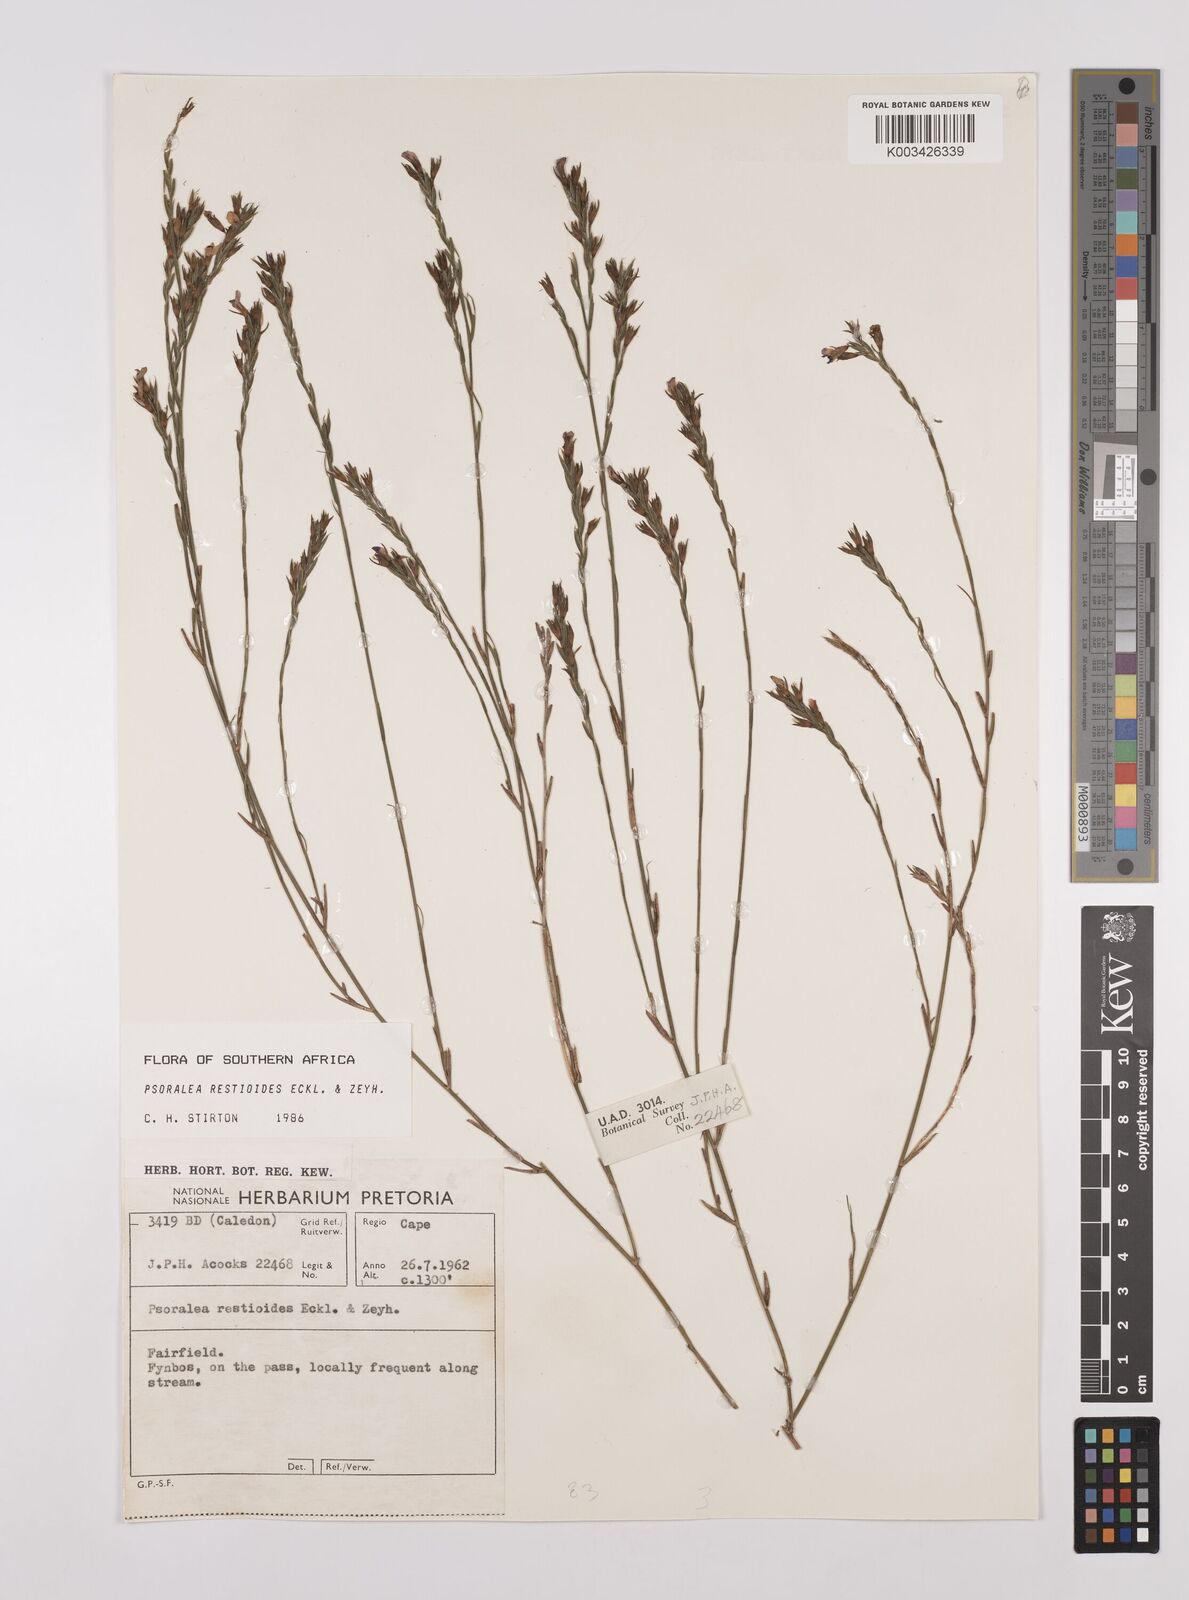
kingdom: Plantae
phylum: Tracheophyta
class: Magnoliopsida
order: Fabales
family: Fabaceae
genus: Psoralea
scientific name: Psoralea restioides
